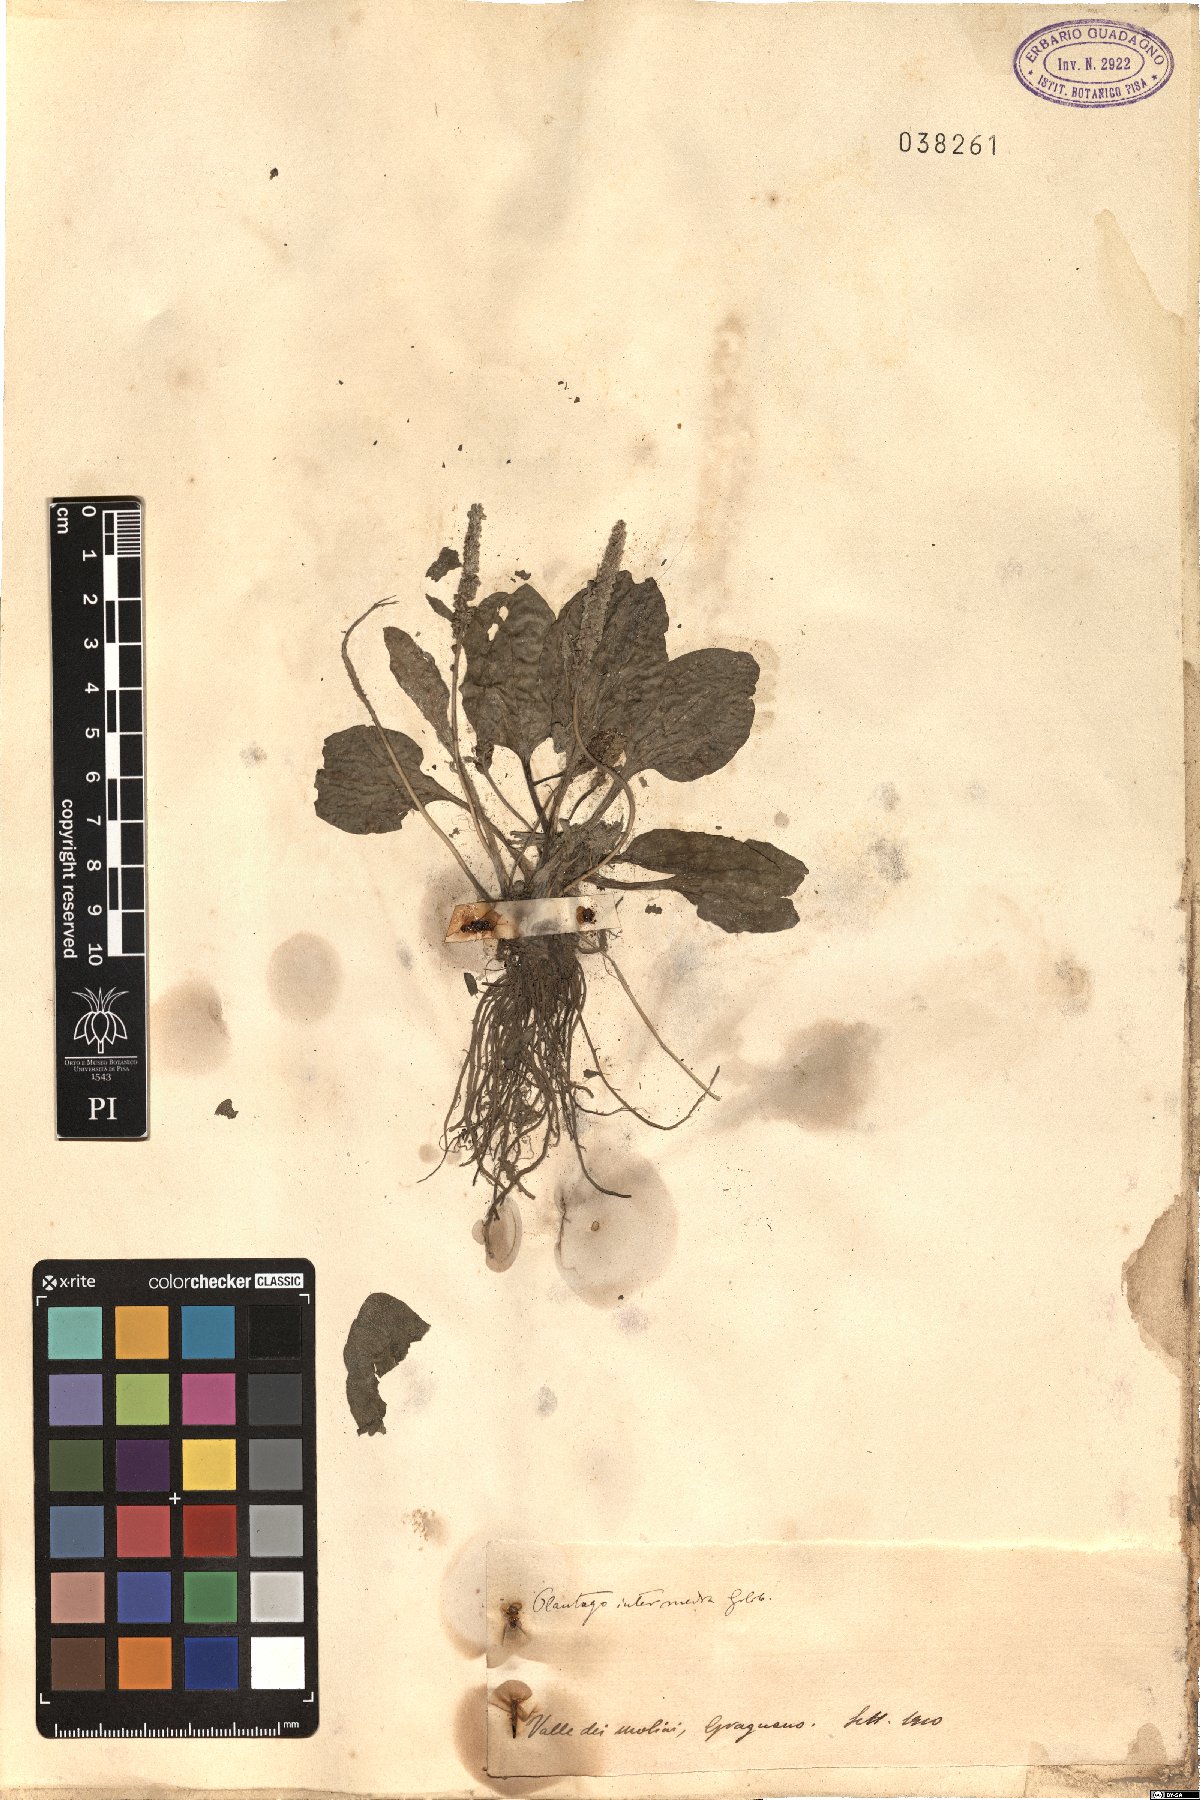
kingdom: Plantae
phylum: Tracheophyta
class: Magnoliopsida
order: Lamiales
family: Plantaginaceae
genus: Plantago
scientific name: Plantago uliginosa
